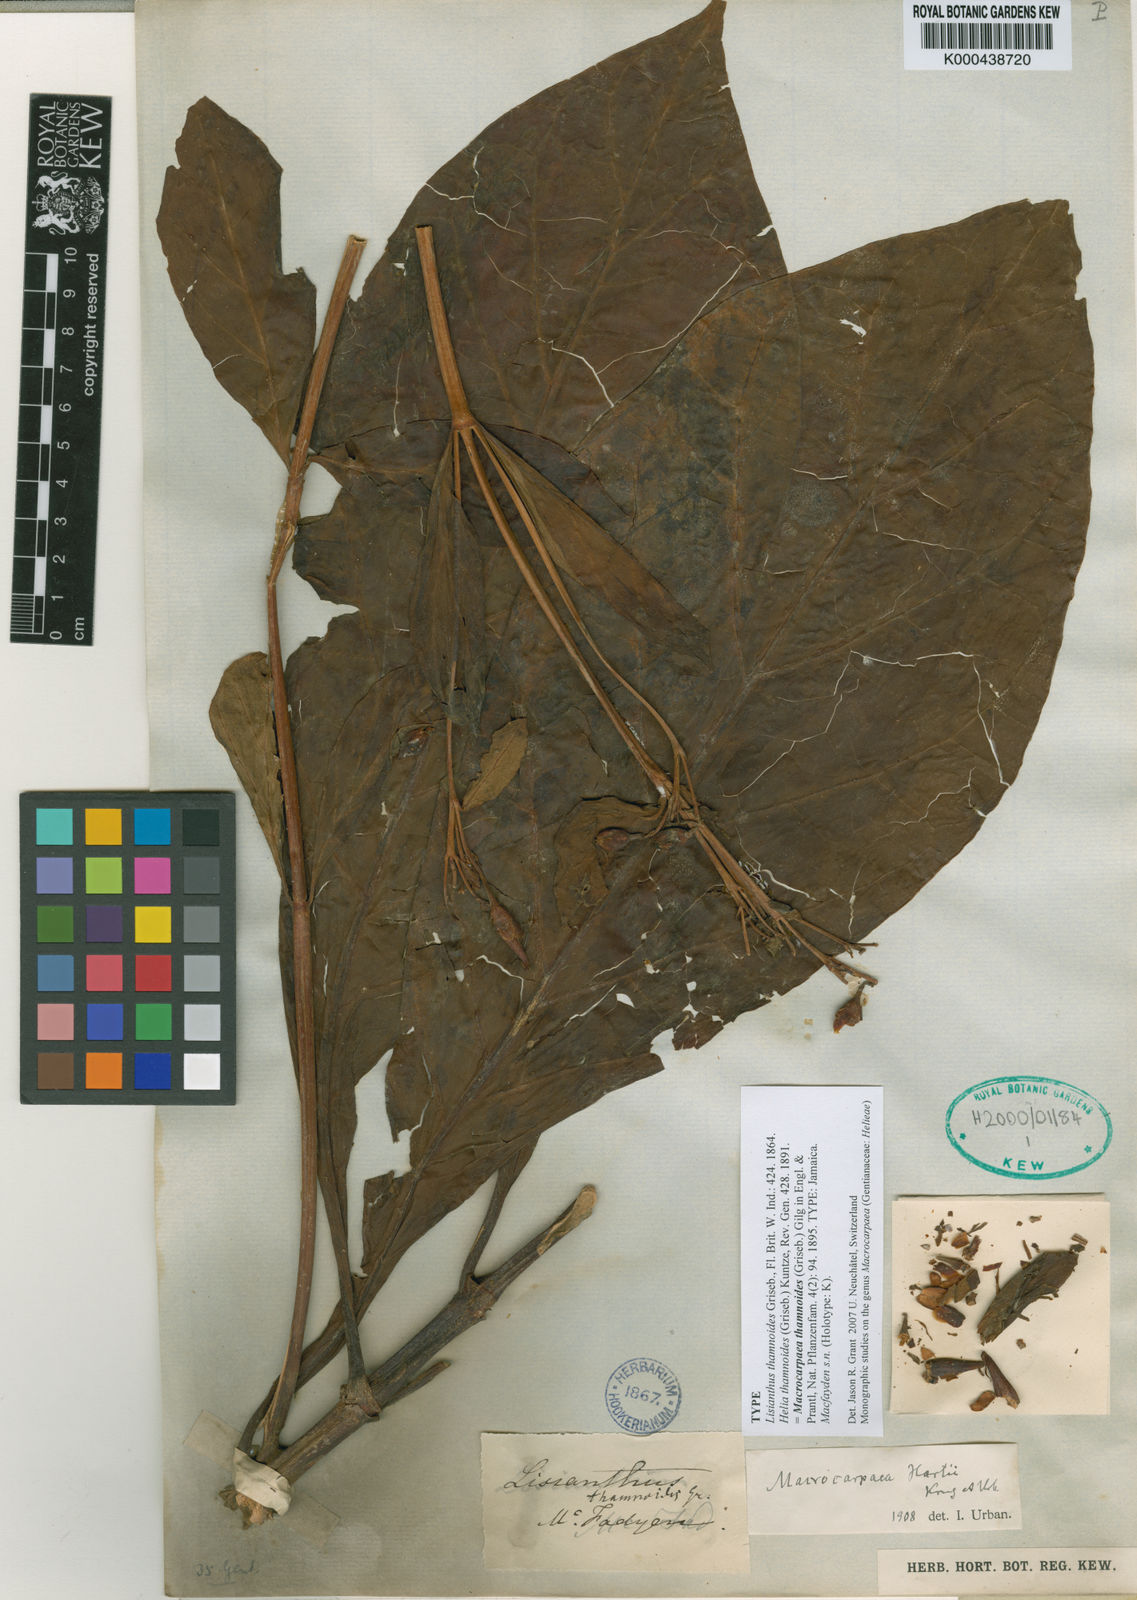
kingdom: Plantae
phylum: Tracheophyta
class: Magnoliopsida
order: Gentianales
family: Gentianaceae
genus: Macrocarpaea
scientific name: Macrocarpaea thamnoides
